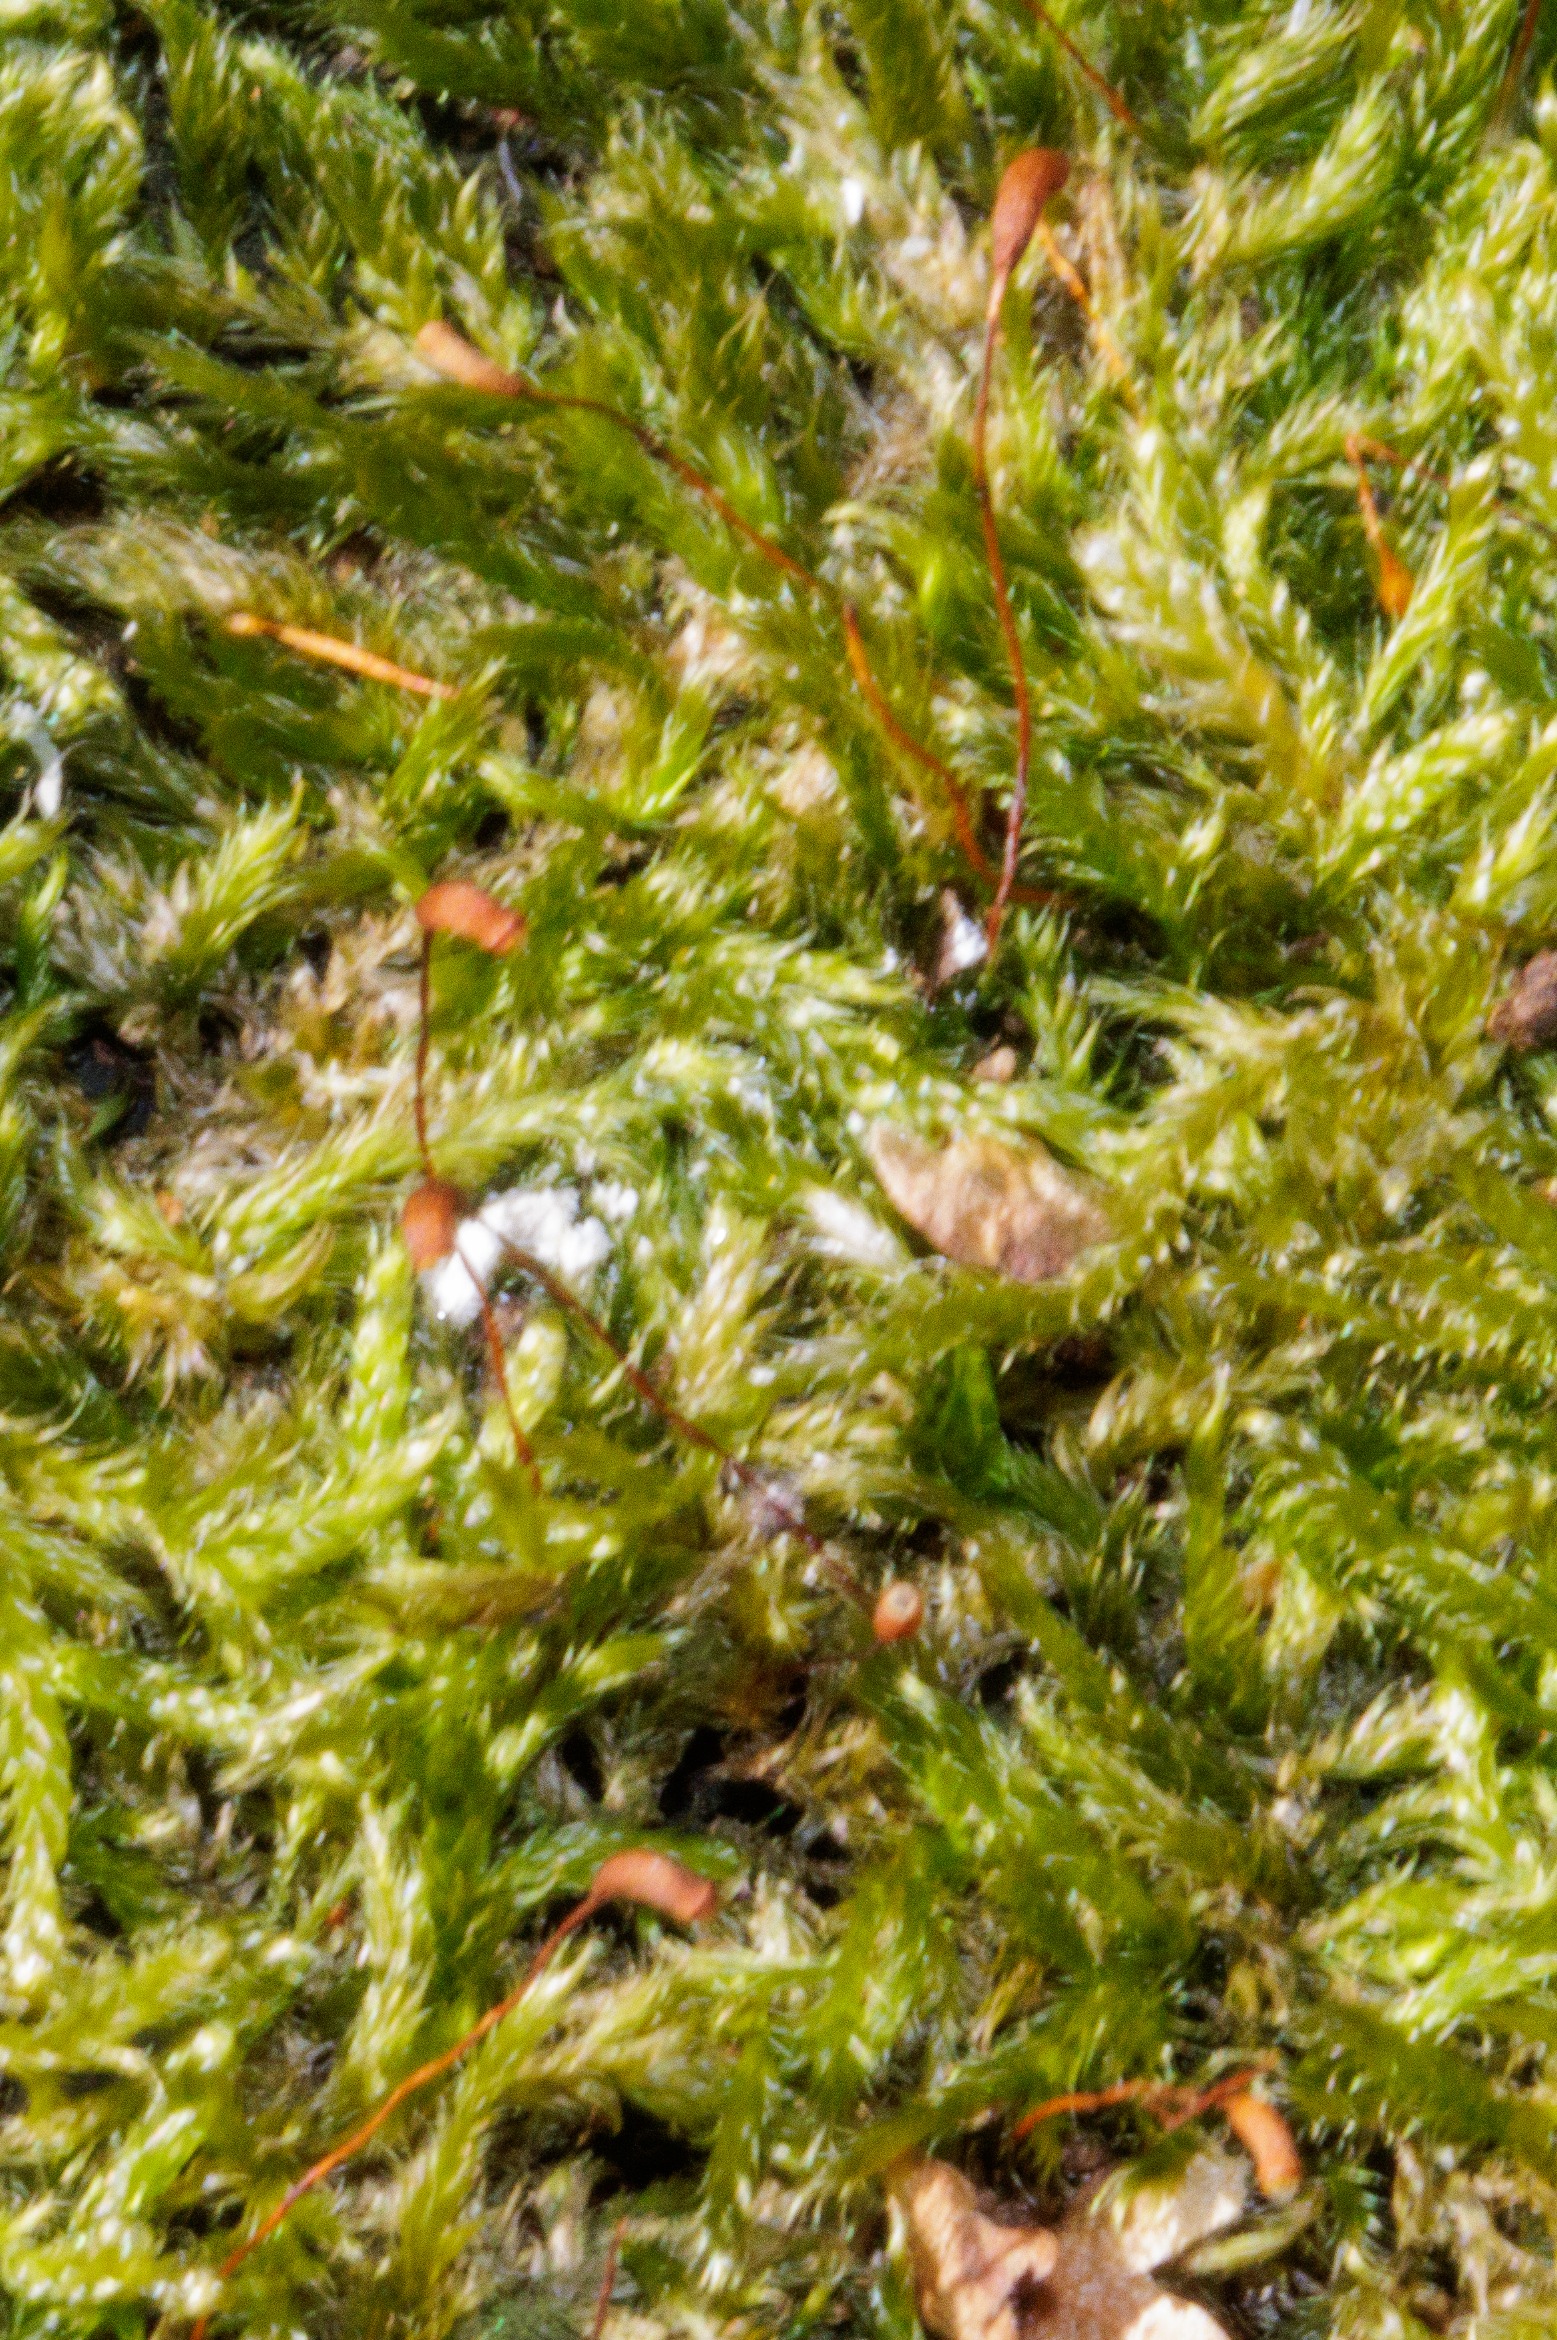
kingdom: Plantae
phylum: Bryophyta
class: Bryopsida
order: Hypnales
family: Hypnaceae
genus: Hypnum
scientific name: Hypnum cupressiforme
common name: Almindelig cypresmos
